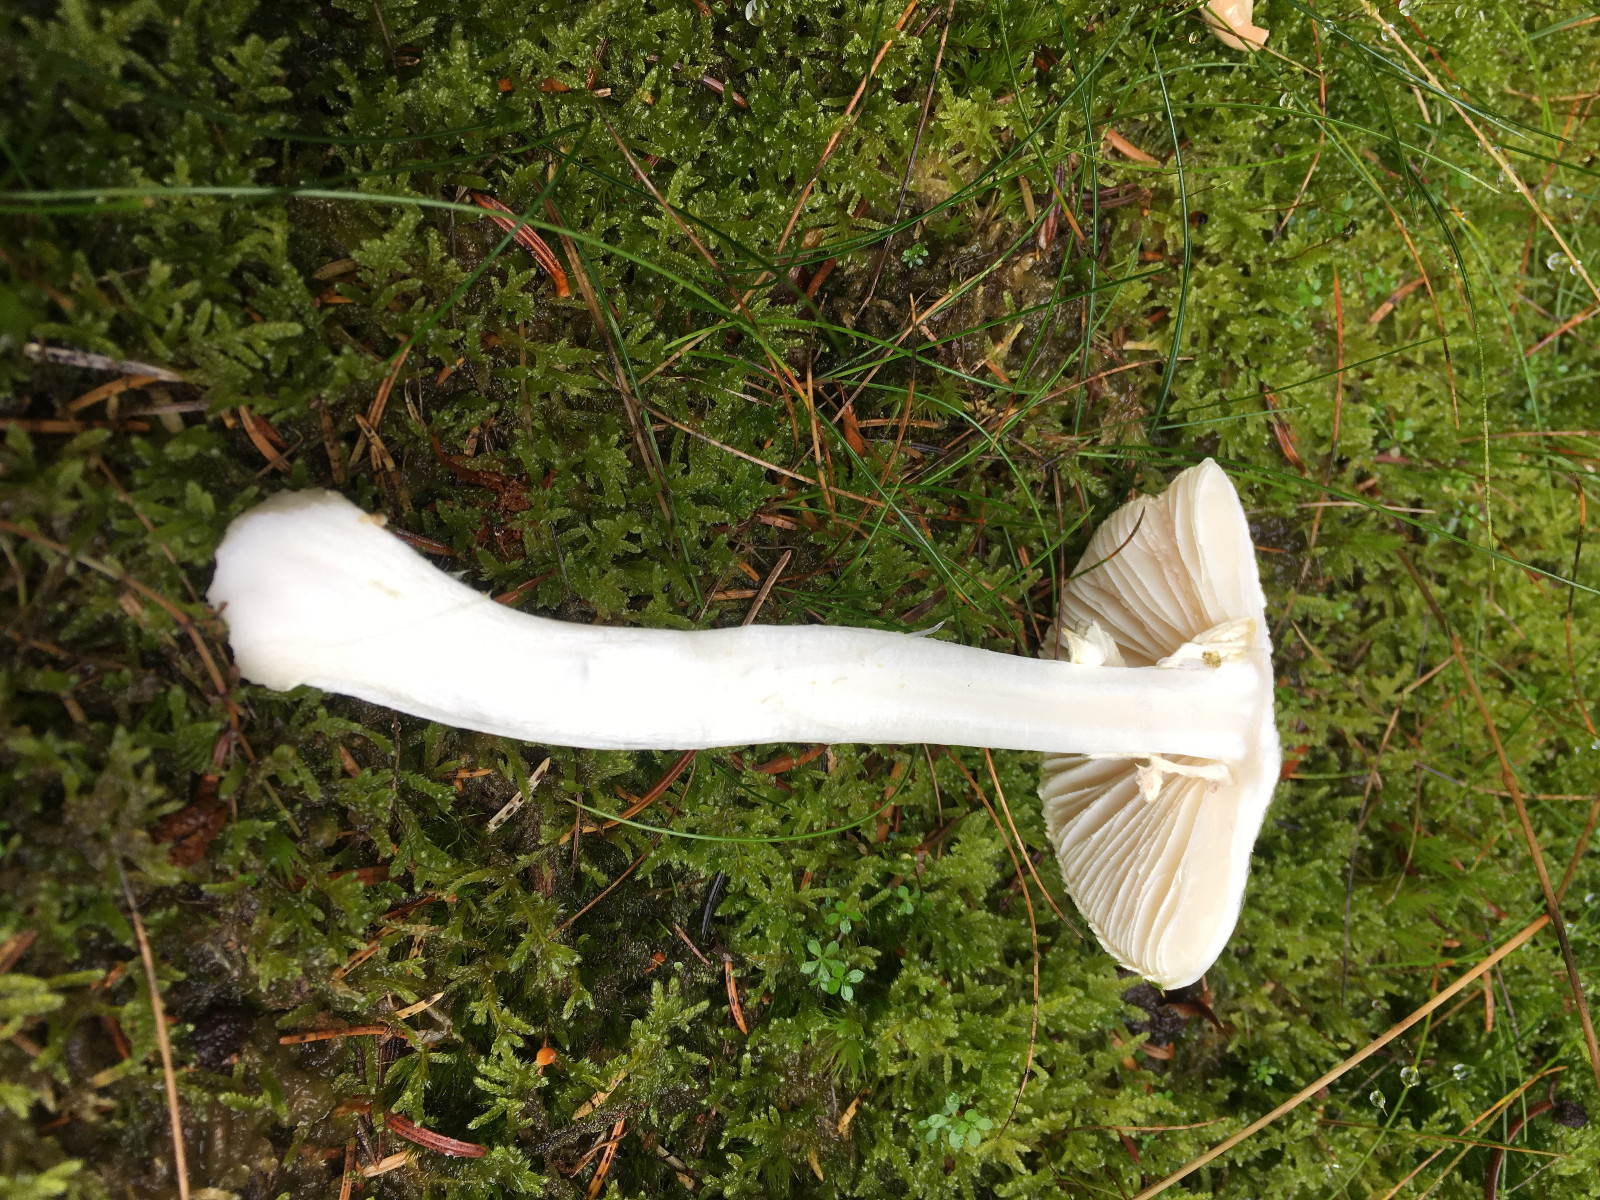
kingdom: Fungi
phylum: Basidiomycota
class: Agaricomycetes
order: Agaricales
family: Amanitaceae
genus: Amanita
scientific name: Amanita citrina
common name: False death-cap
